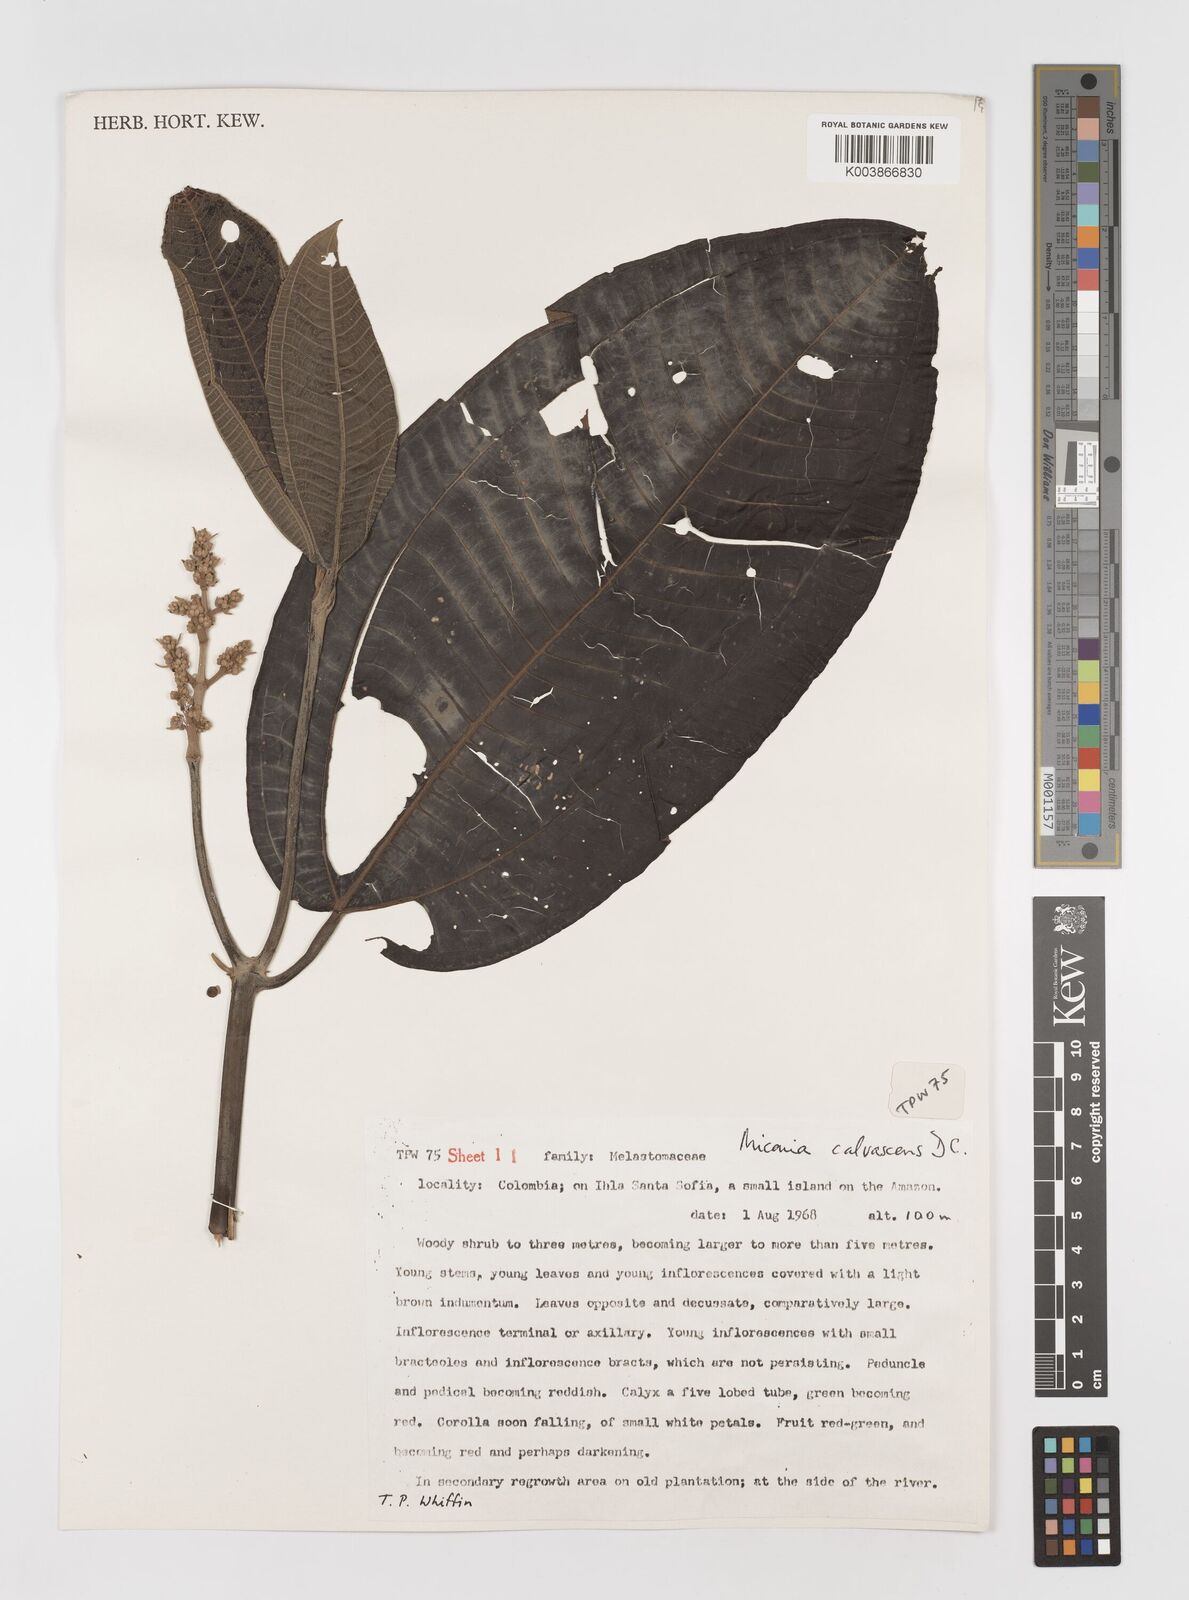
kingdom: Plantae
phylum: Tracheophyta
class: Magnoliopsida
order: Myrtales
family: Melastomataceae
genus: Miconia
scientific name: Miconia calvescens
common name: Purple plague
